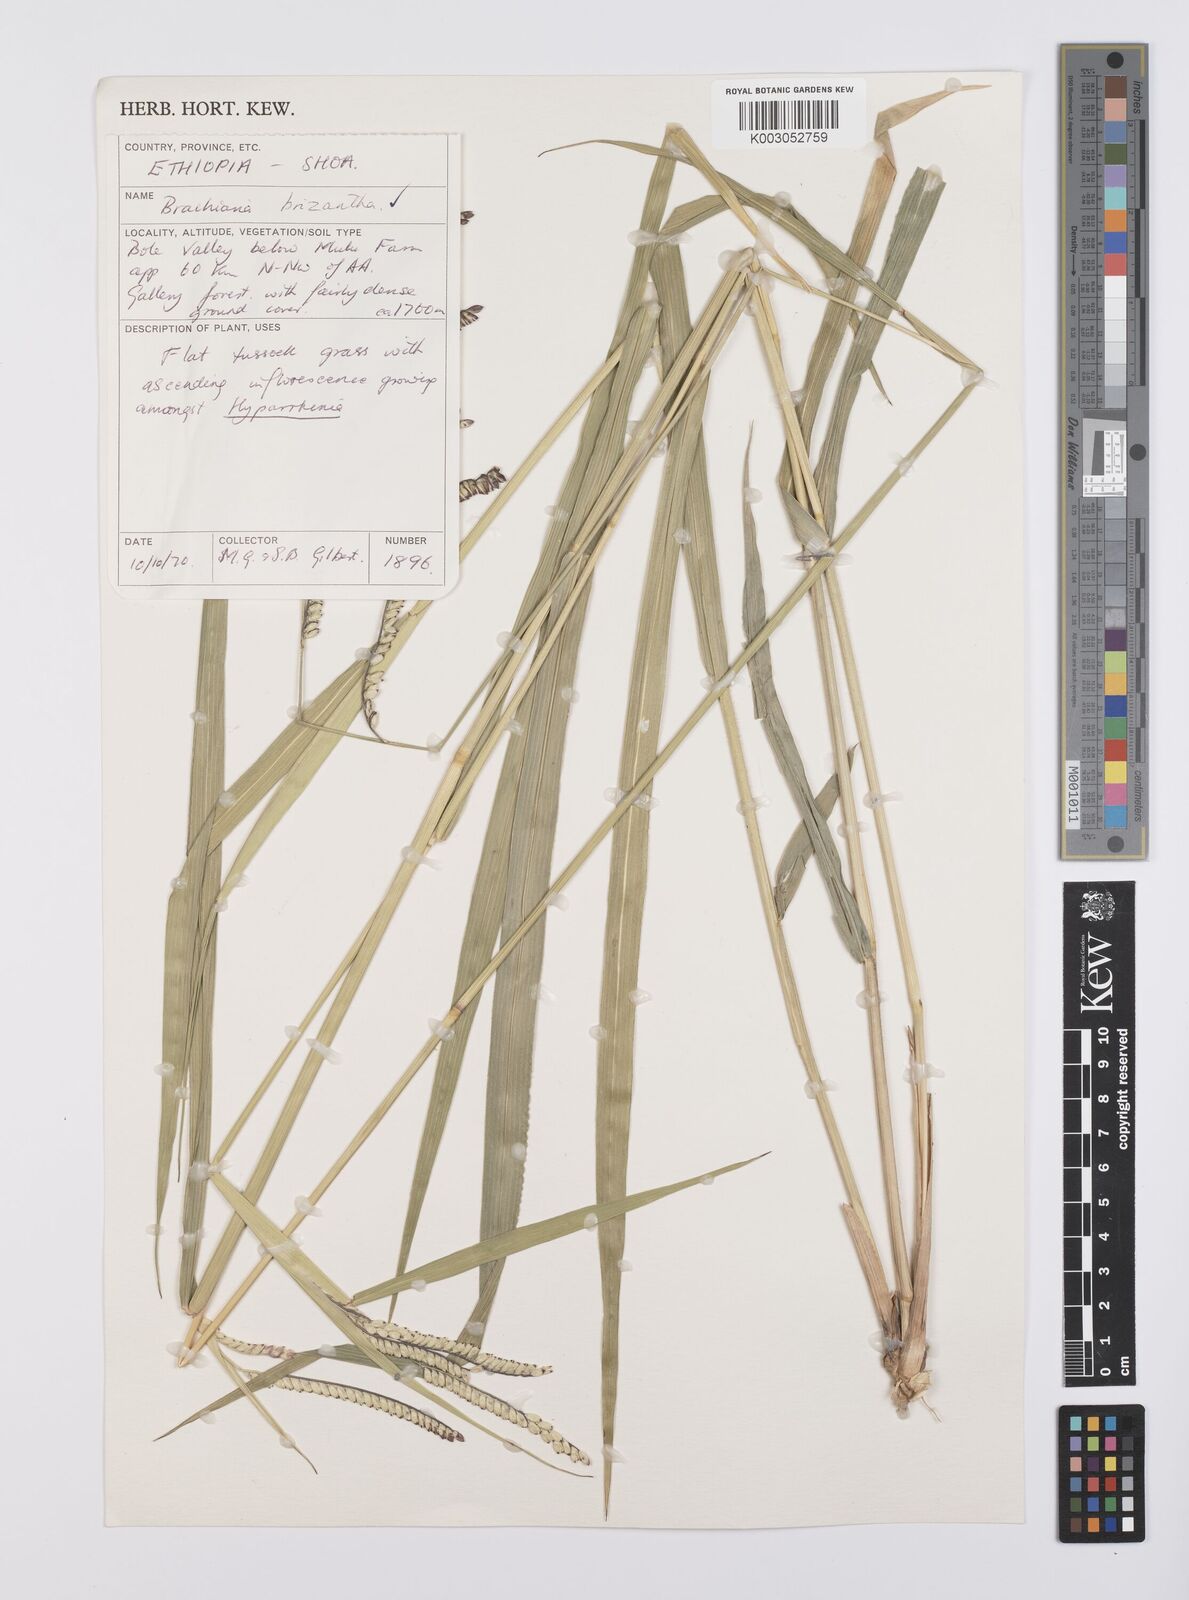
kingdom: Plantae
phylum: Tracheophyta
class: Liliopsida
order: Poales
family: Poaceae
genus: Urochloa
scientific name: Urochloa brizantha
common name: Palisade signalgrass
